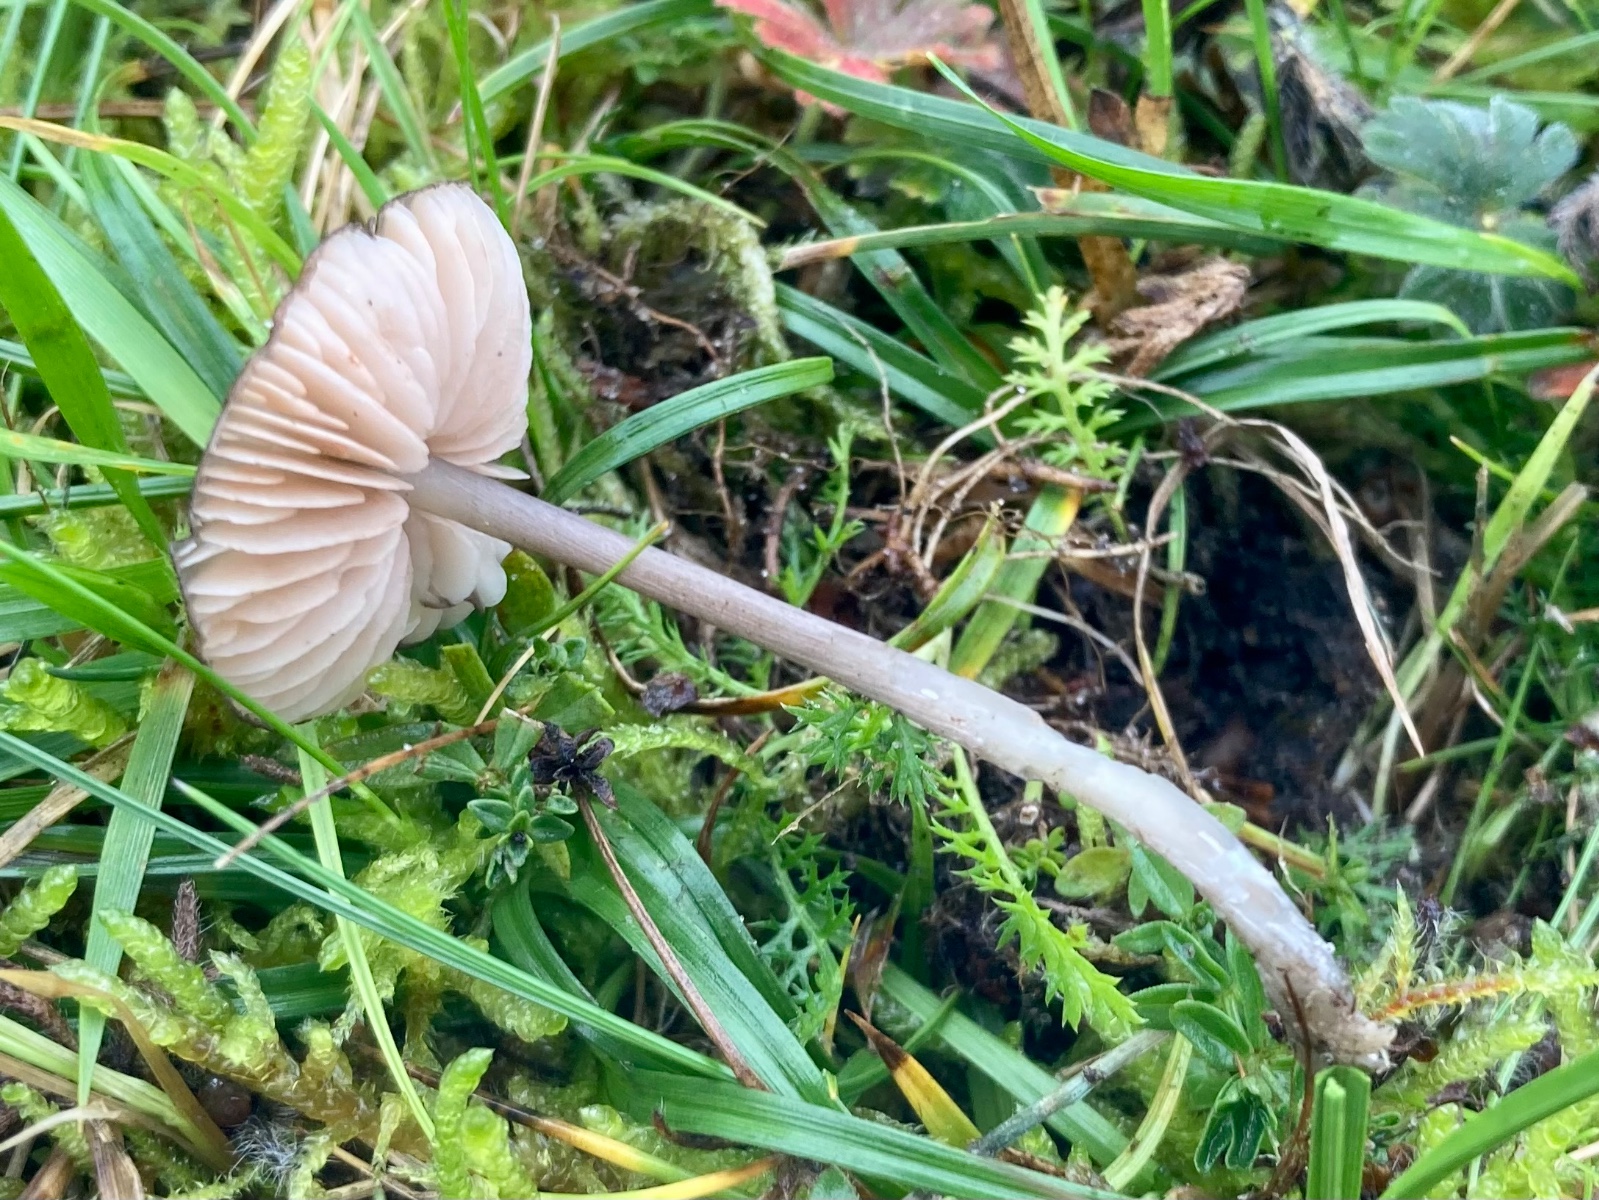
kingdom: Fungi
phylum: Basidiomycota
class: Agaricomycetes
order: Agaricales
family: Entolomataceae
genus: Entoloma
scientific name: Entoloma
